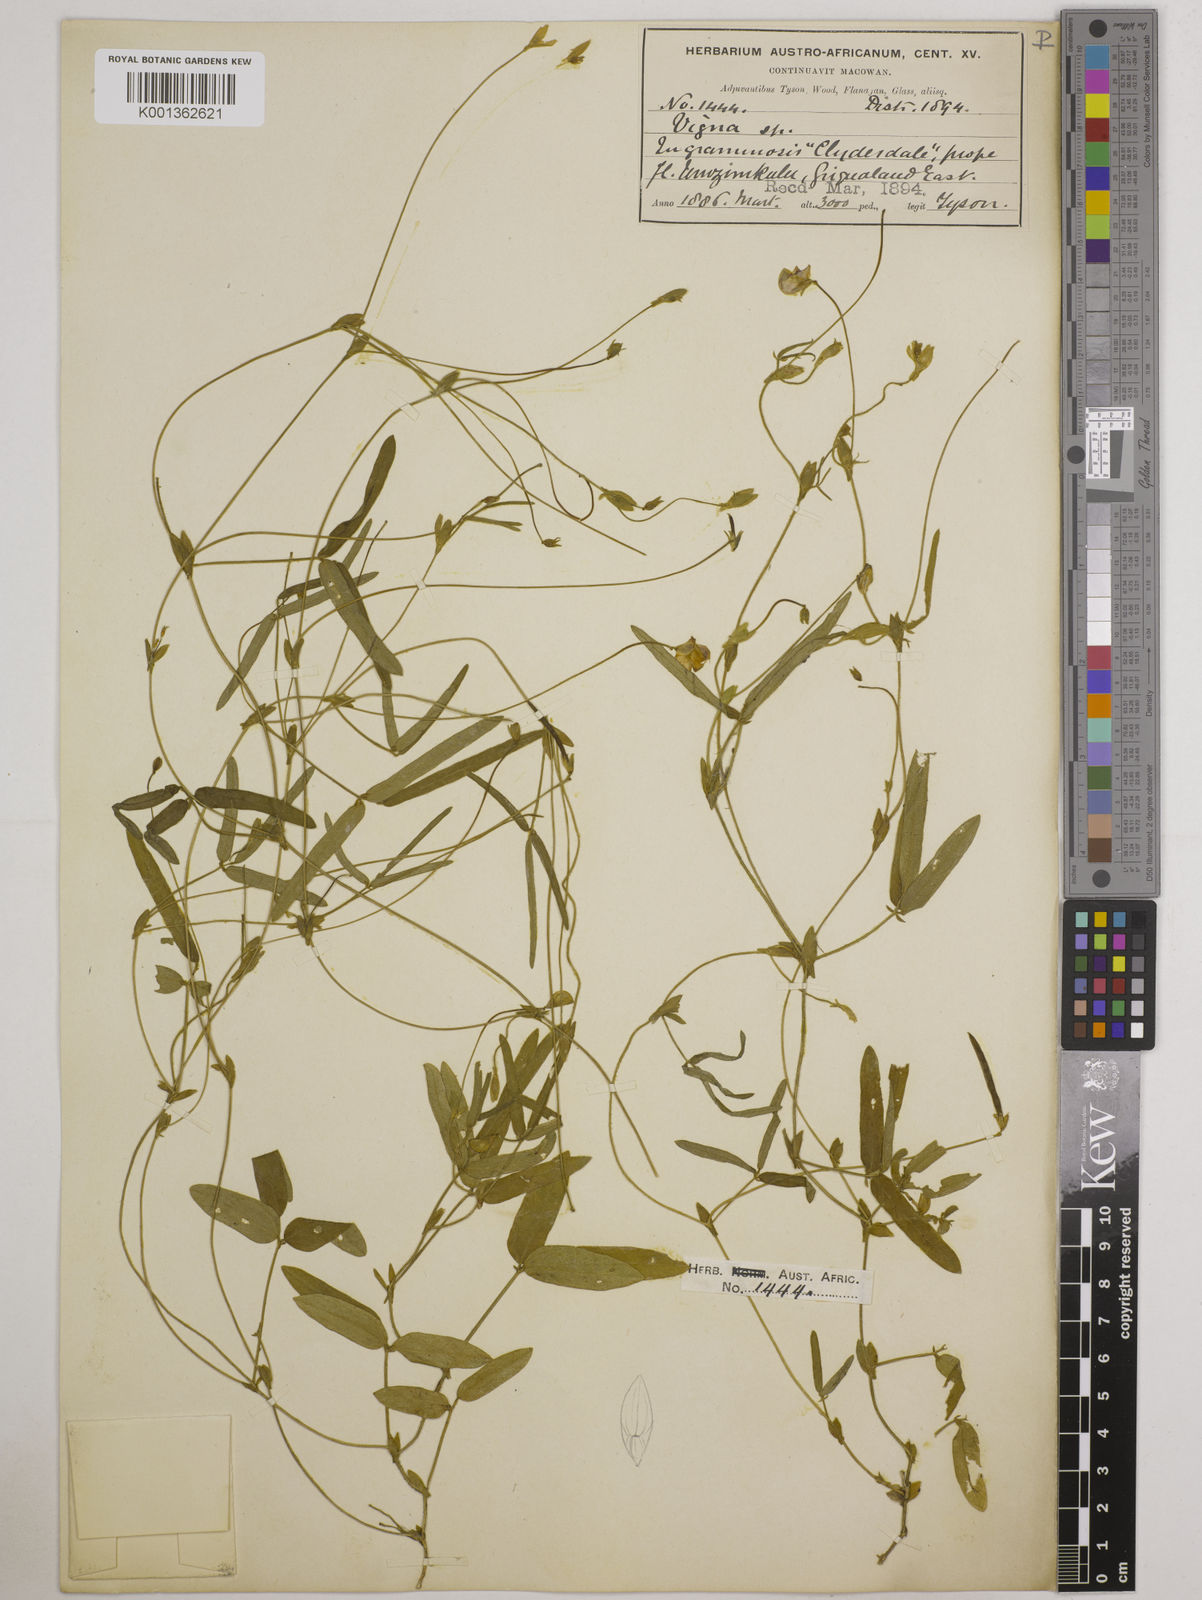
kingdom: Plantae
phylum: Tracheophyta
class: Magnoliopsida
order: Fabales
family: Fabaceae
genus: Vigna
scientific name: Vigna nervosa
